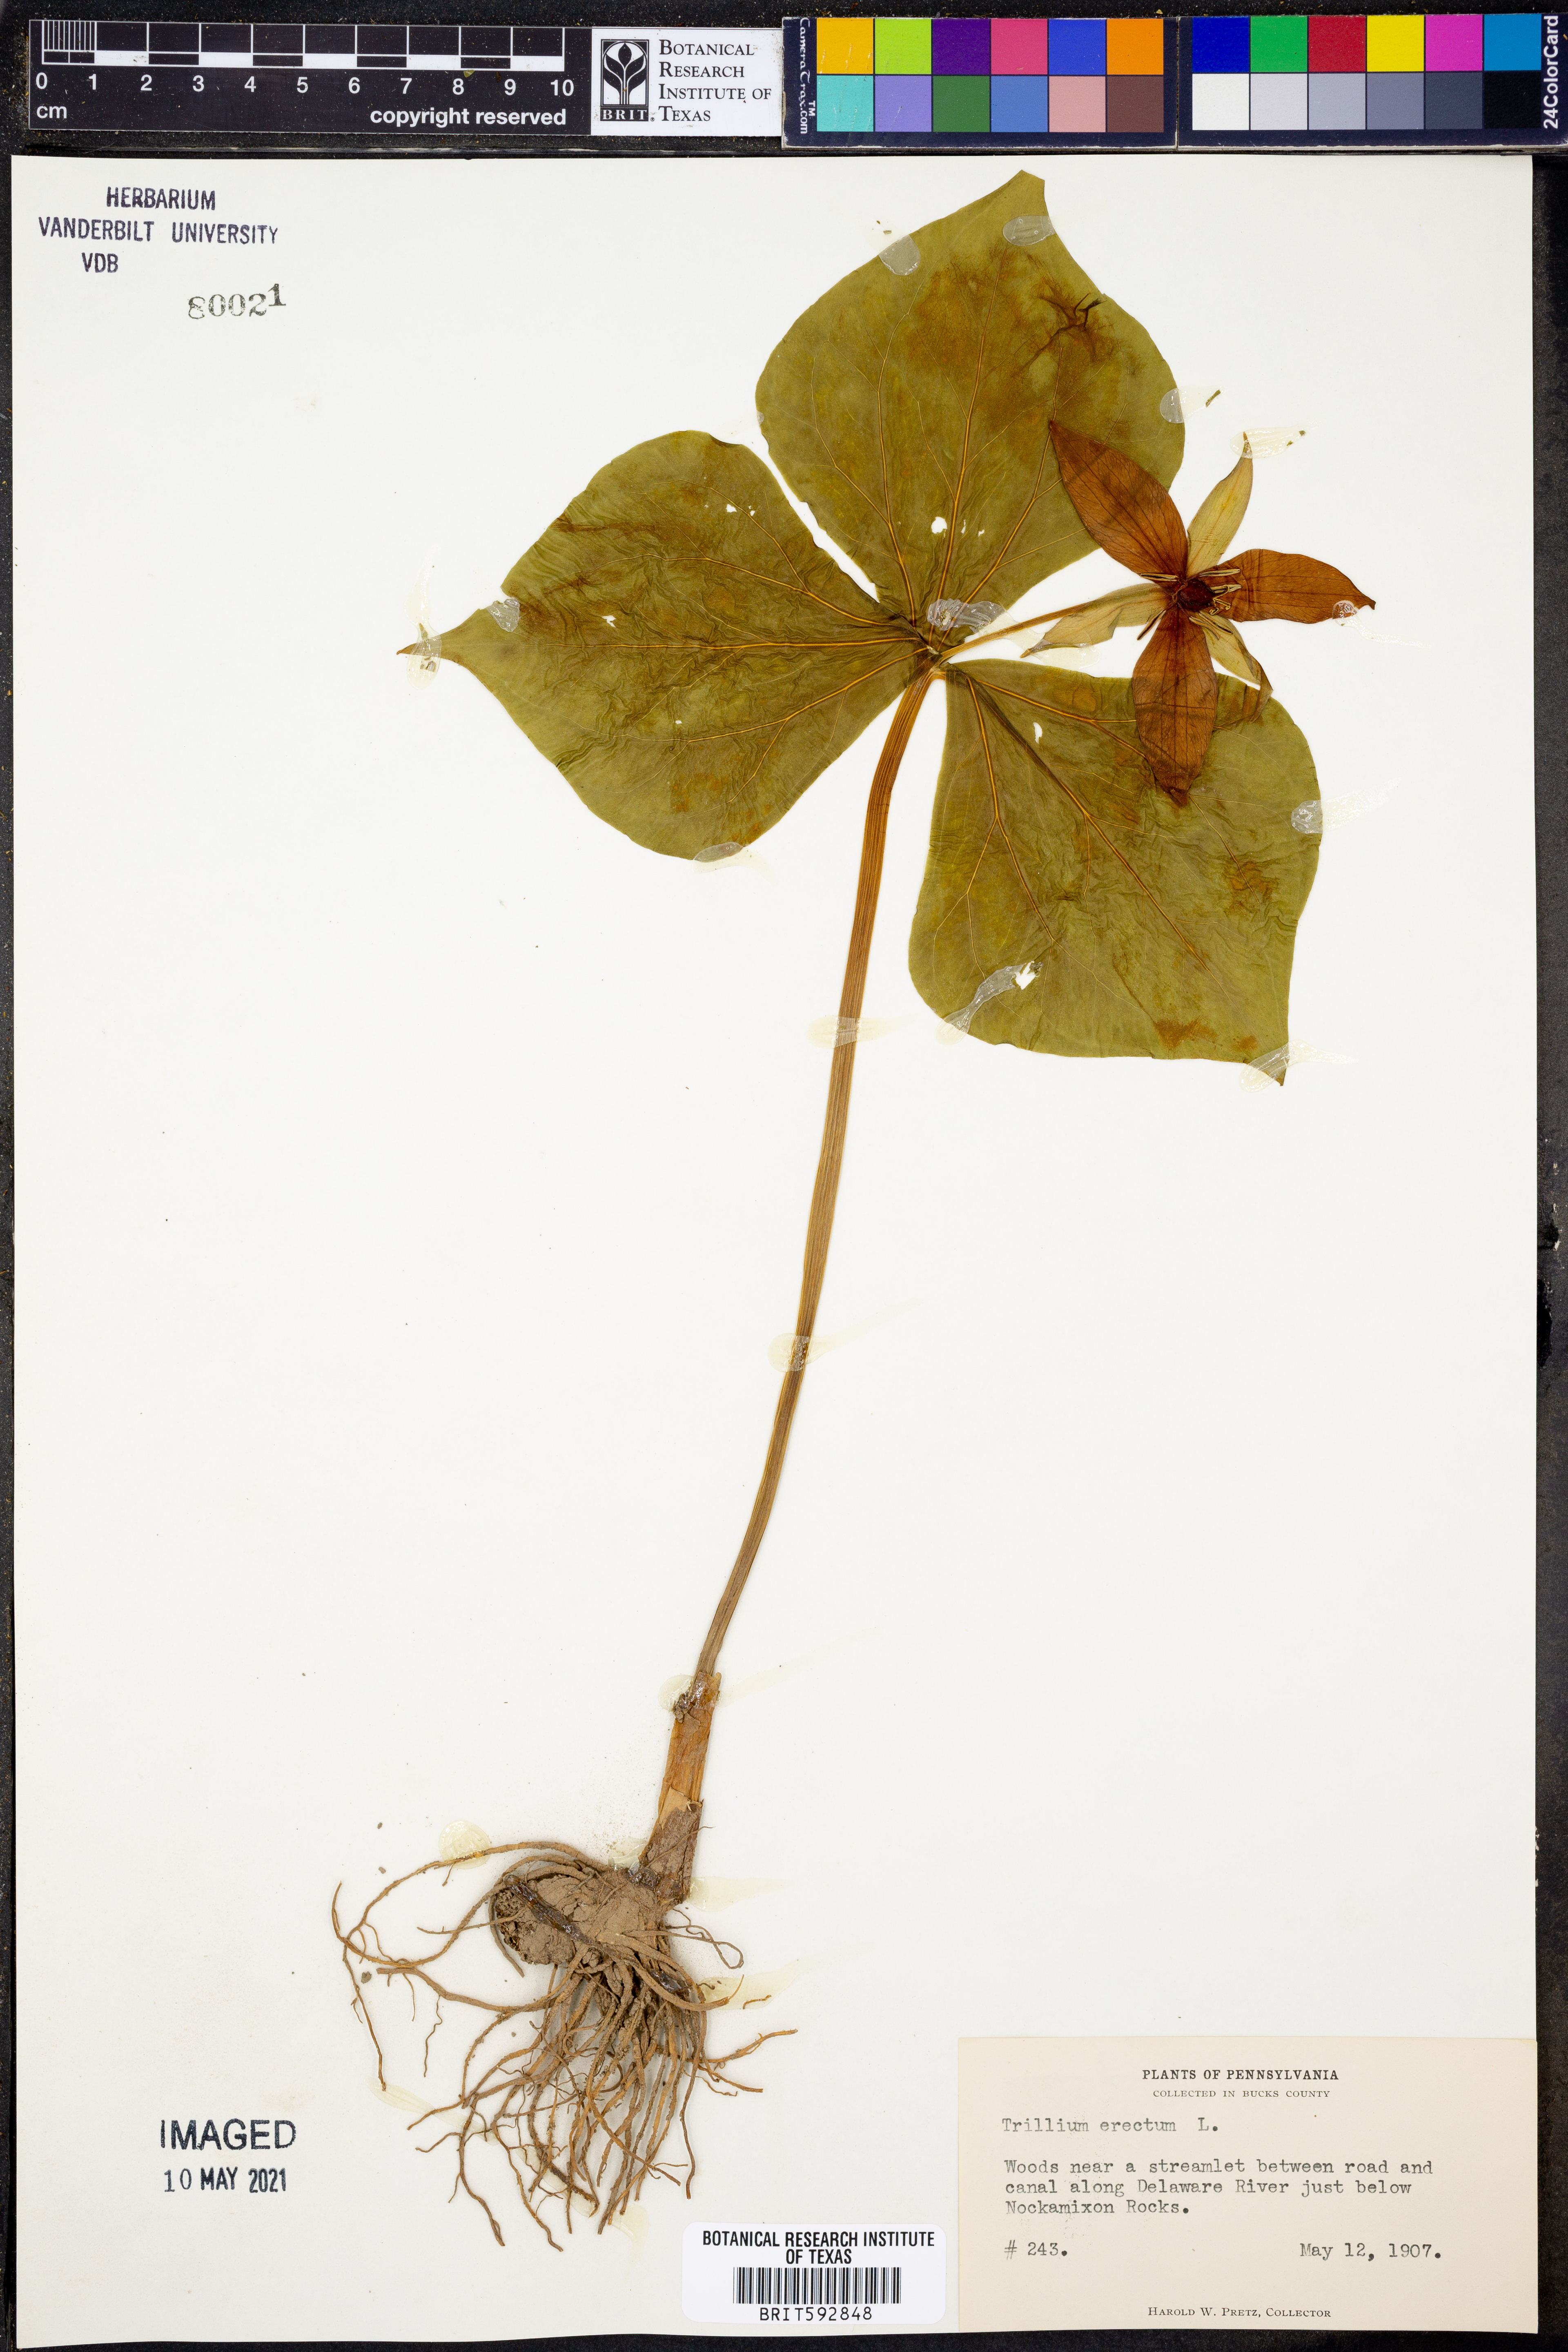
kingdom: Plantae
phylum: Tracheophyta
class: Liliopsida
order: Liliales
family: Melanthiaceae
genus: Trillium
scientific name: Trillium erectum
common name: Purple trillium
